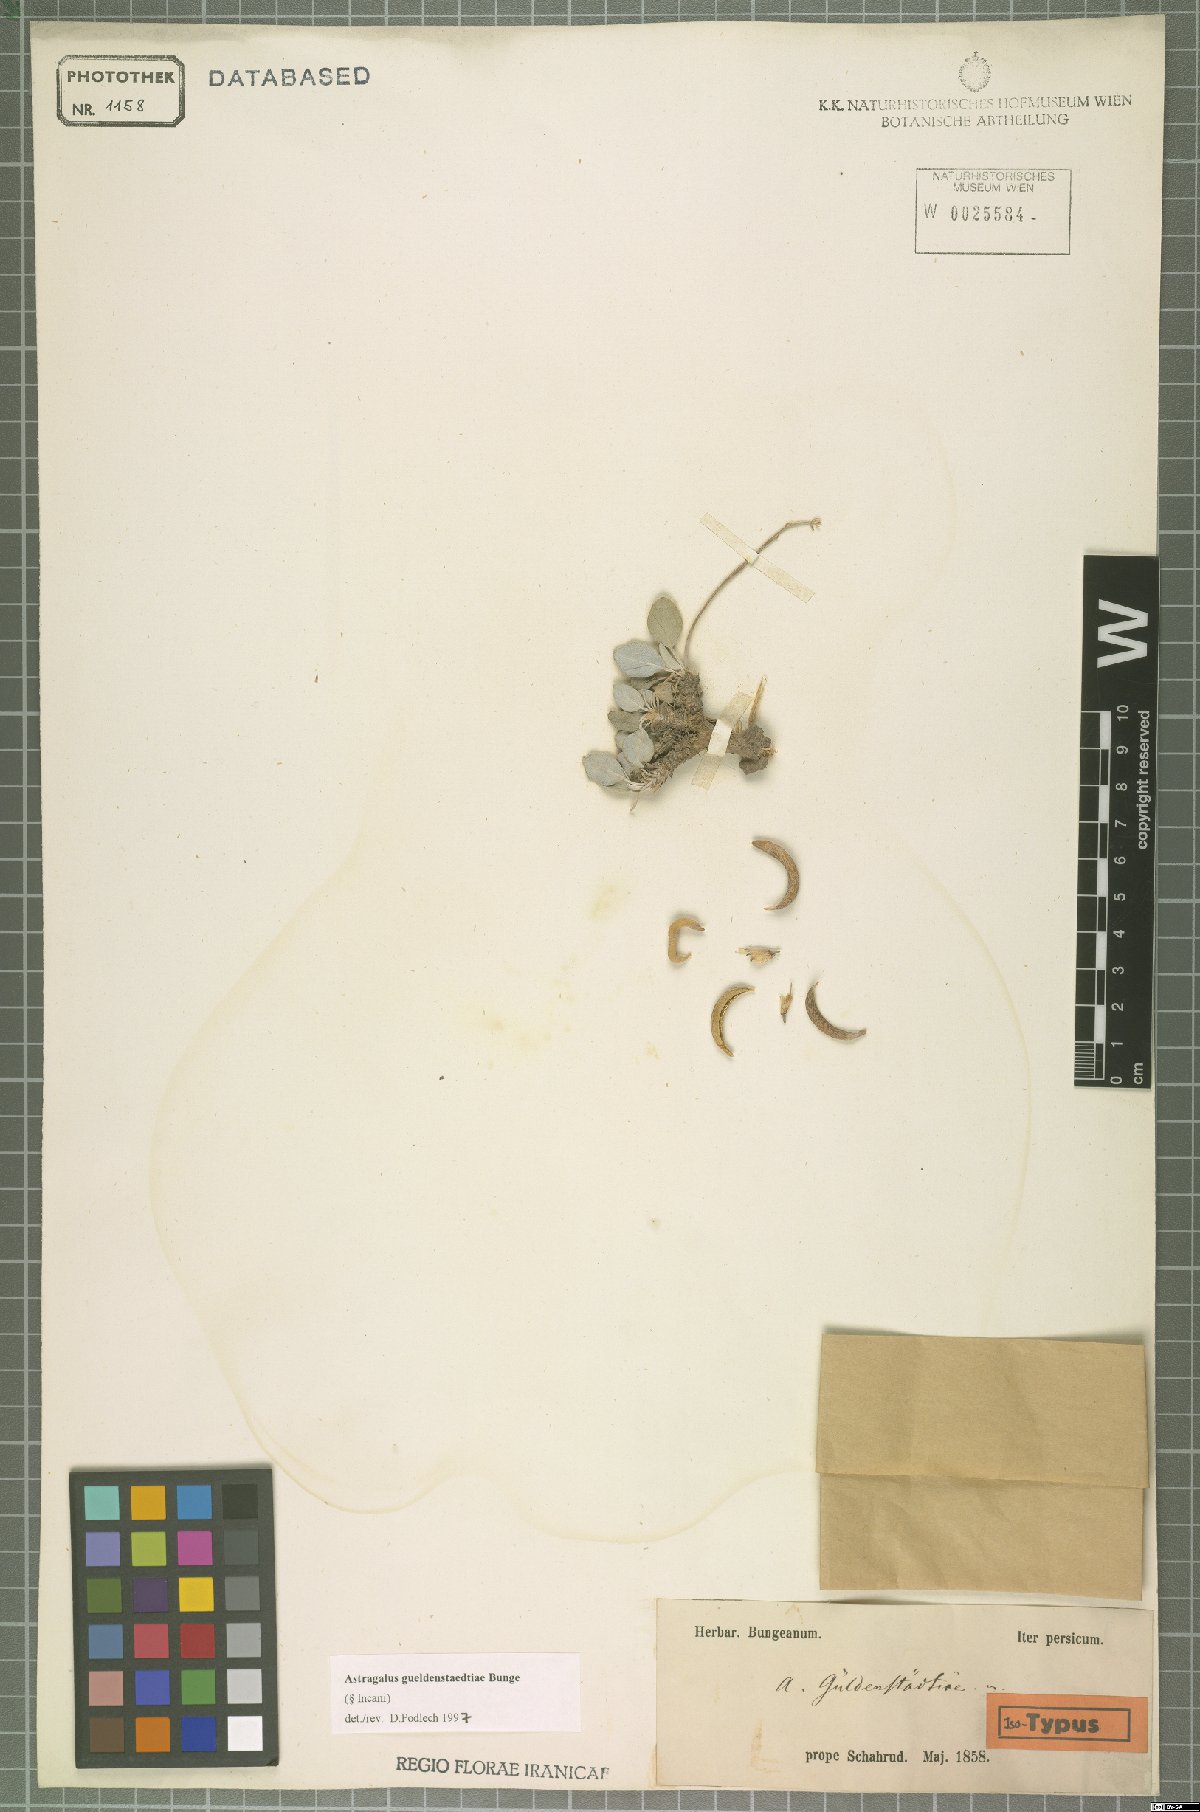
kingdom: Plantae
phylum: Tracheophyta
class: Magnoliopsida
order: Fabales
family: Fabaceae
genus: Astragalus
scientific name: Astragalus gueldenstaedtiae
